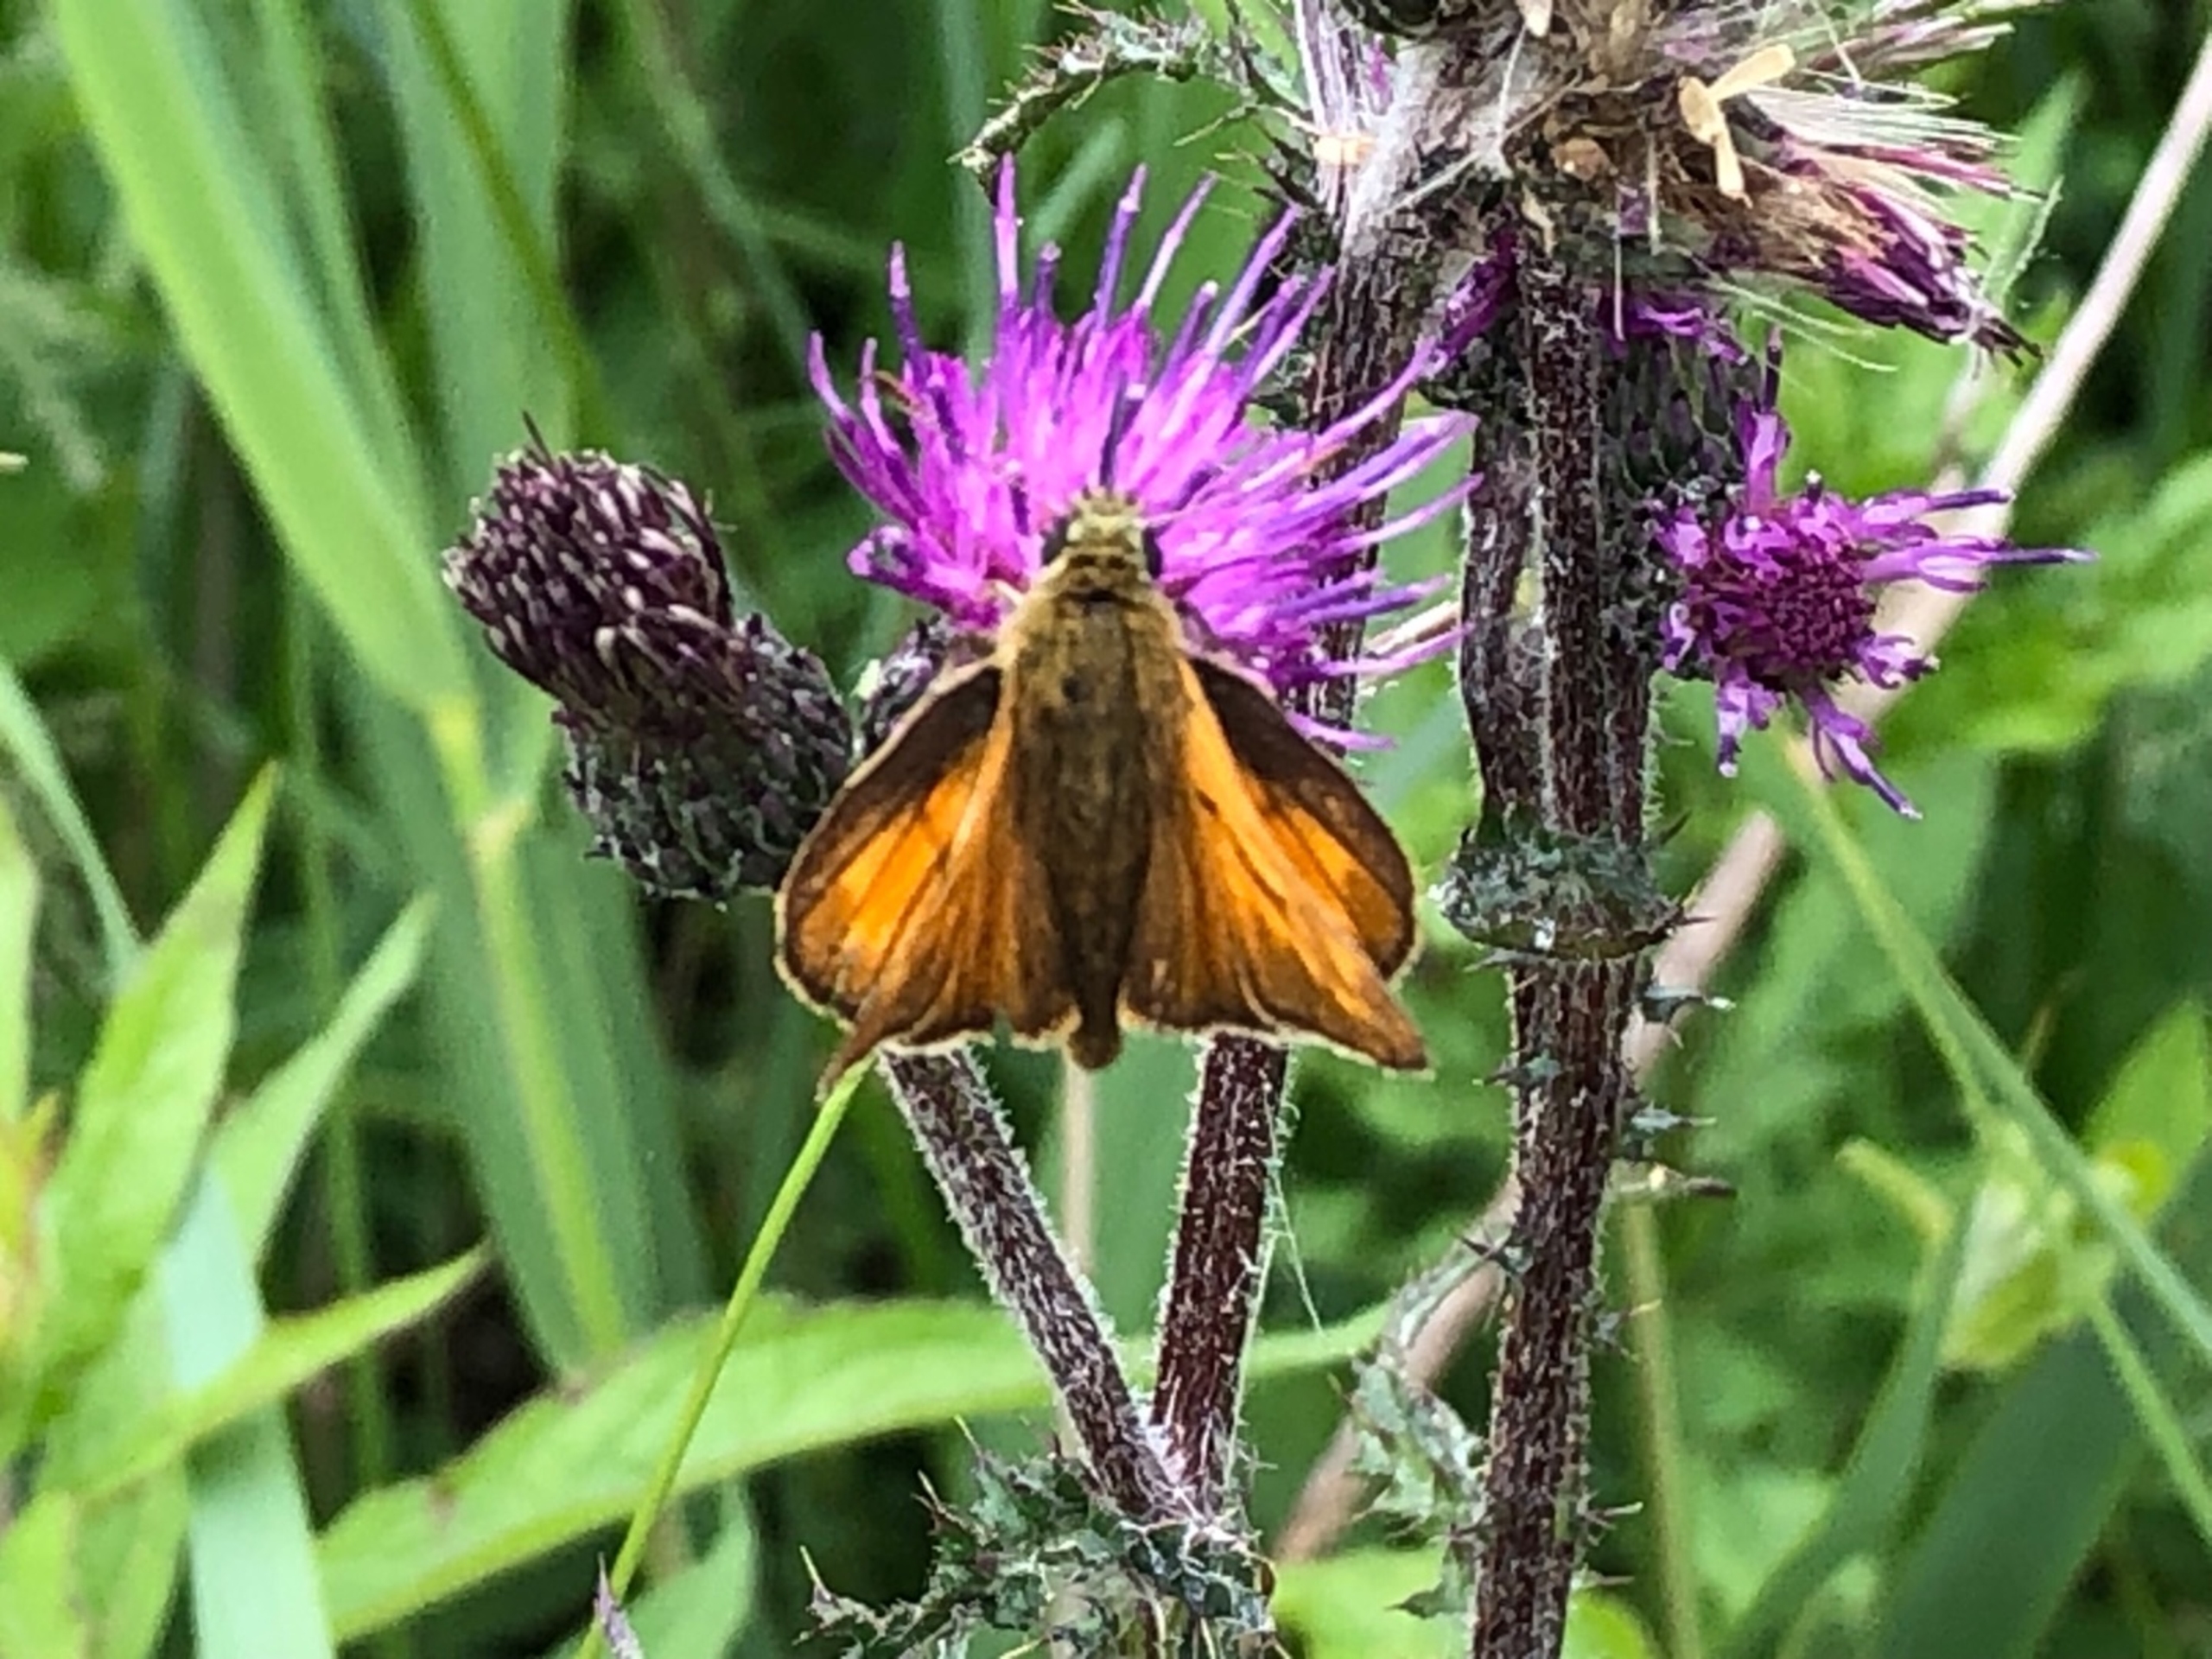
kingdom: Animalia
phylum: Arthropoda
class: Insecta
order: Lepidoptera
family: Hesperiidae
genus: Ochlodes
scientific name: Ochlodes venata
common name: Stor bredpande
